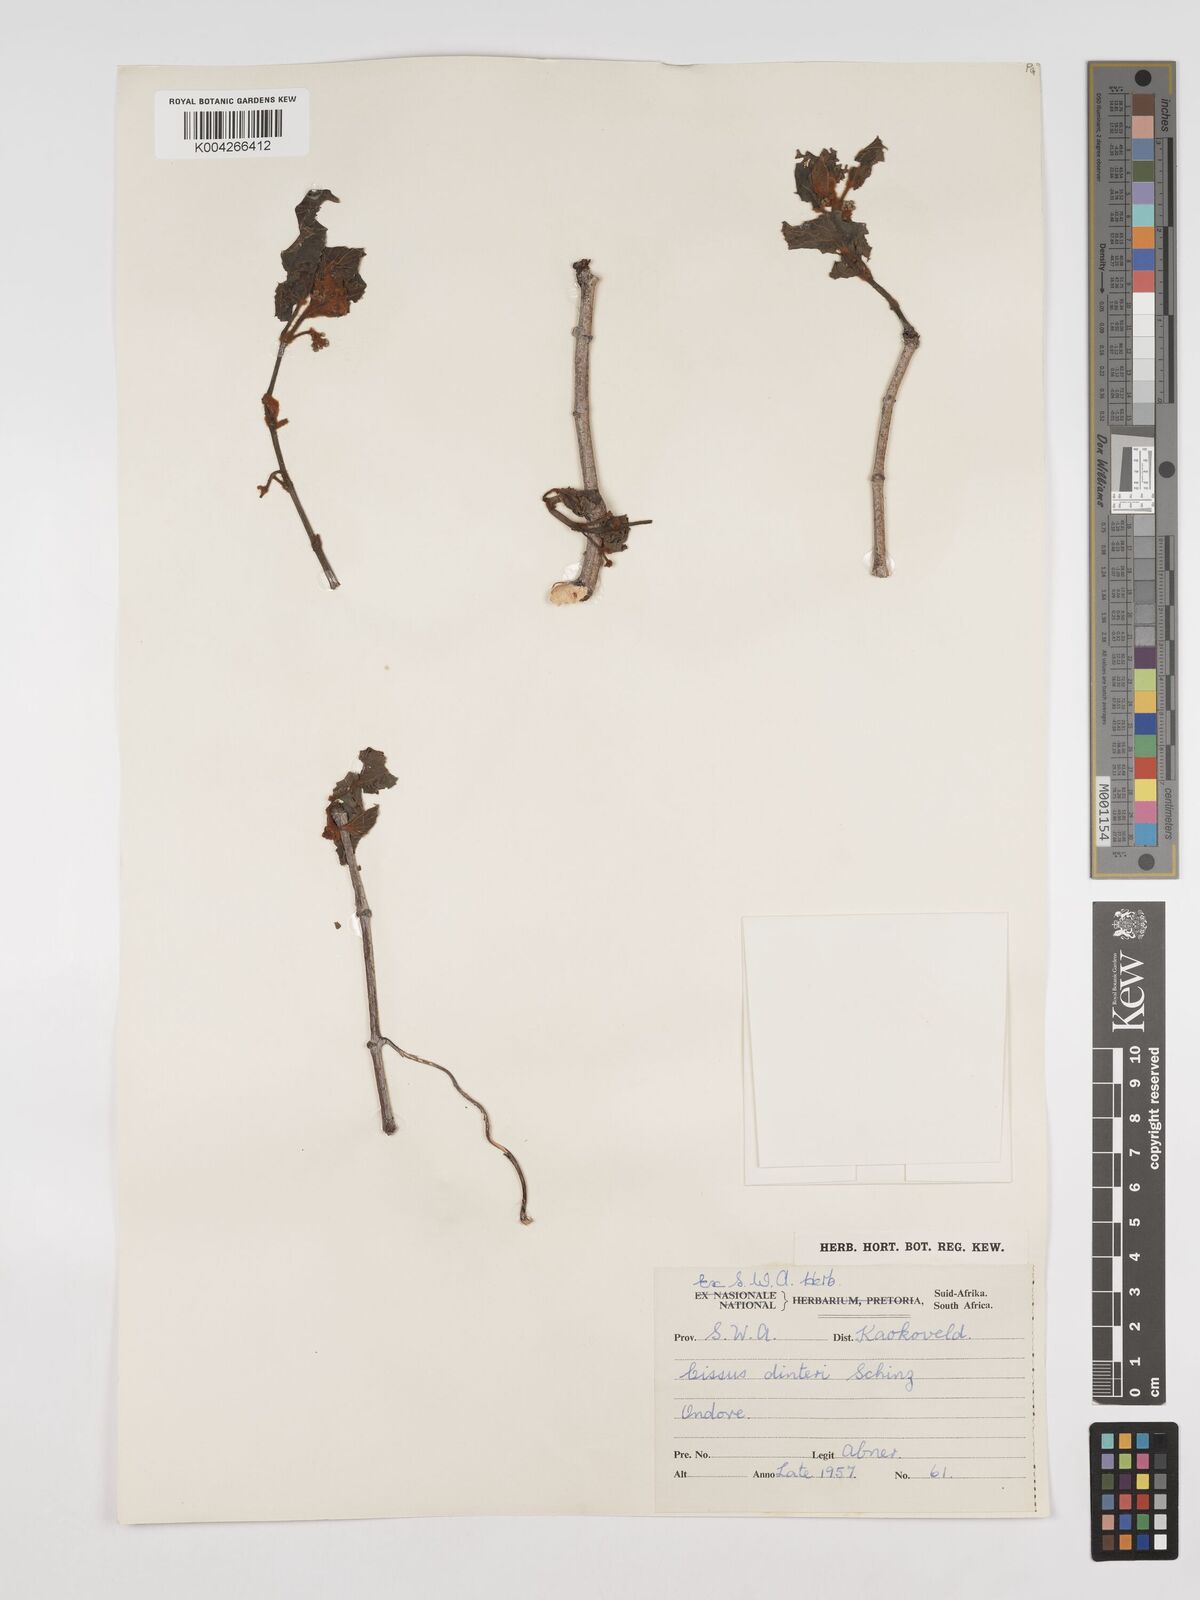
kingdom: Plantae
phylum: Tracheophyta
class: Magnoliopsida
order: Vitales
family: Vitaceae
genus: Cissus
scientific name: Cissus nymphaeifolia
